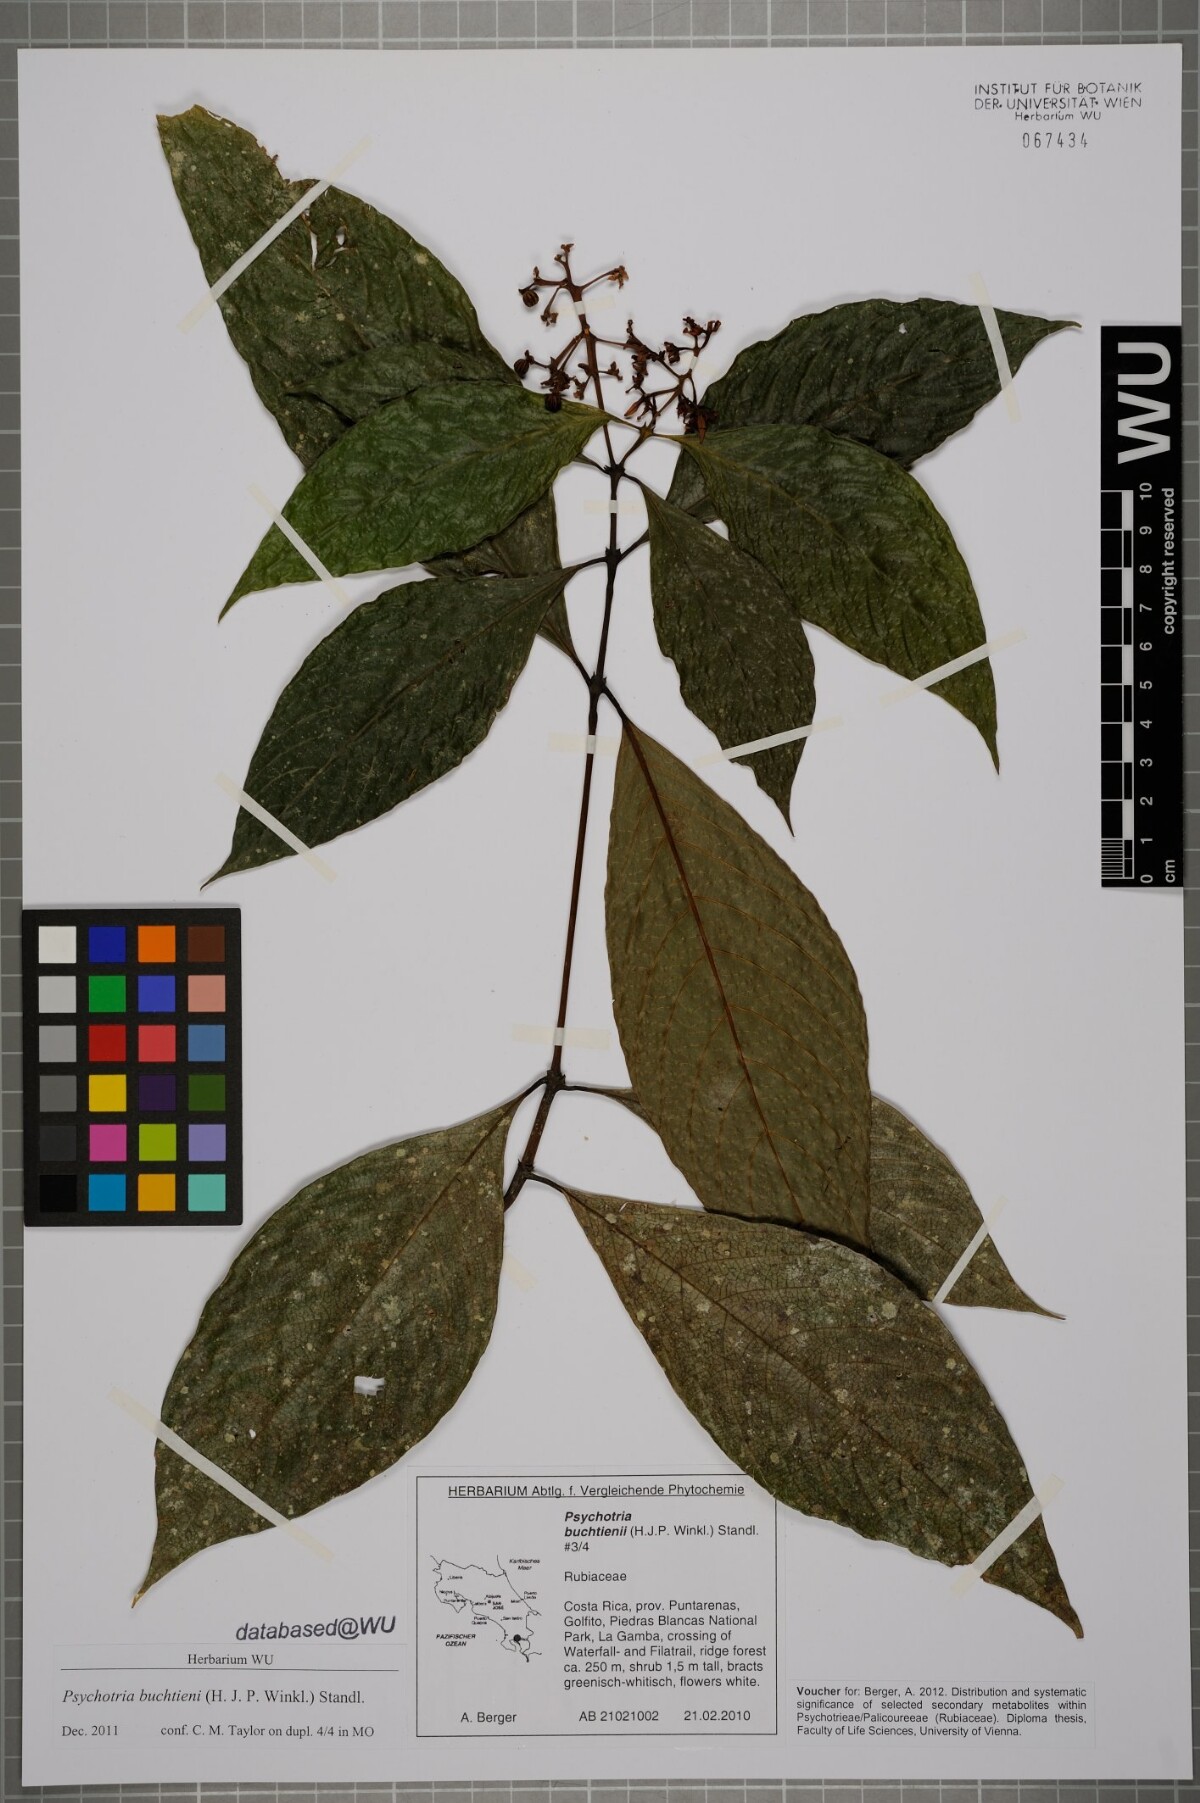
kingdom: Plantae
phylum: Tracheophyta
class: Magnoliopsida
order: Gentianales
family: Rubiaceae
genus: Palicourea
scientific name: Palicourea winkleri
